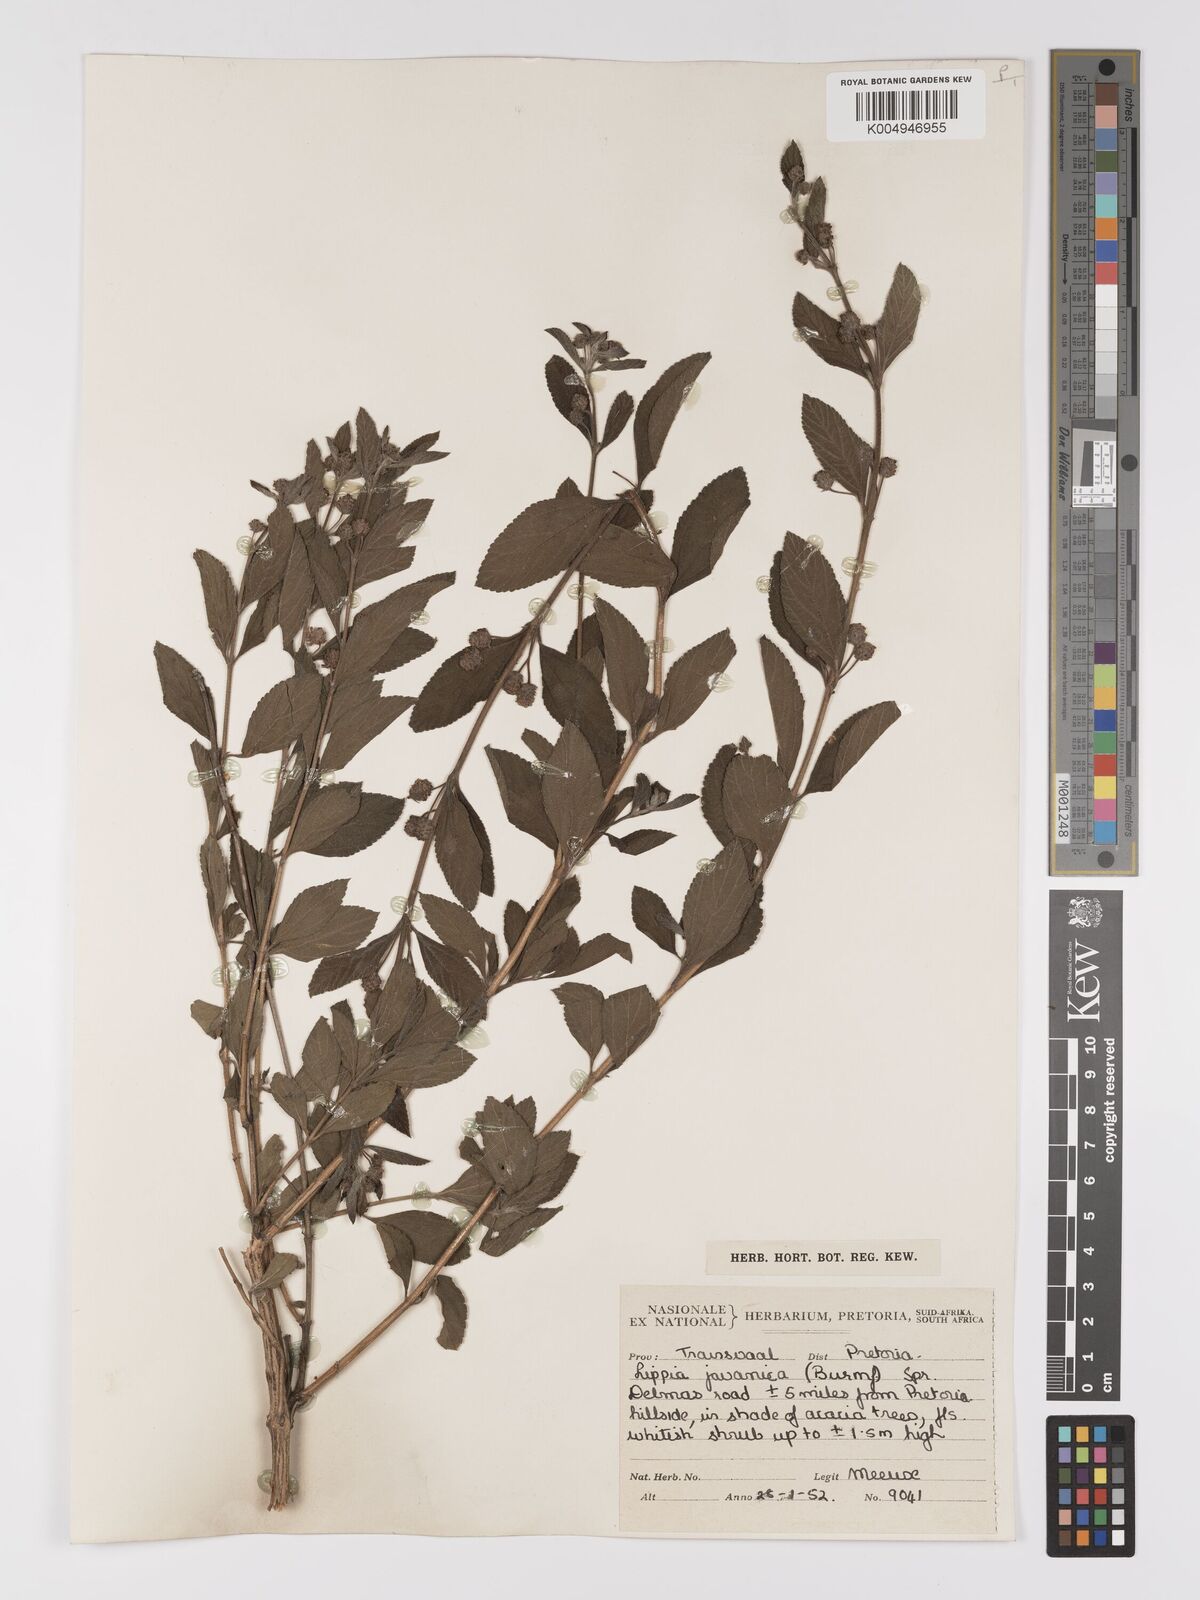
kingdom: Plantae
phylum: Tracheophyta
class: Magnoliopsida
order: Lamiales
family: Verbenaceae
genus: Lippia
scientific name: Lippia javanica
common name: Lemonbush
